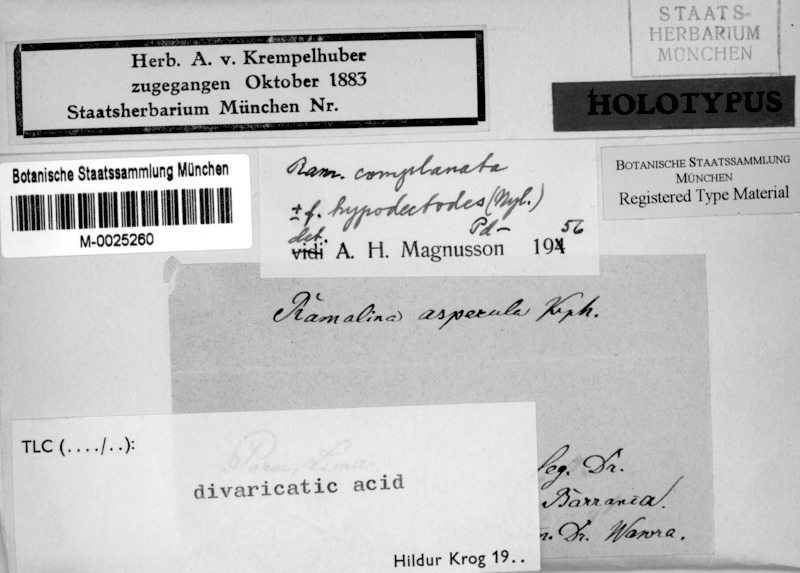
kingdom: Fungi
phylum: Ascomycota
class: Lecanoromycetes
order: Lecanorales
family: Ramalinaceae
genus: Ramalina
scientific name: Ramalina asperula
